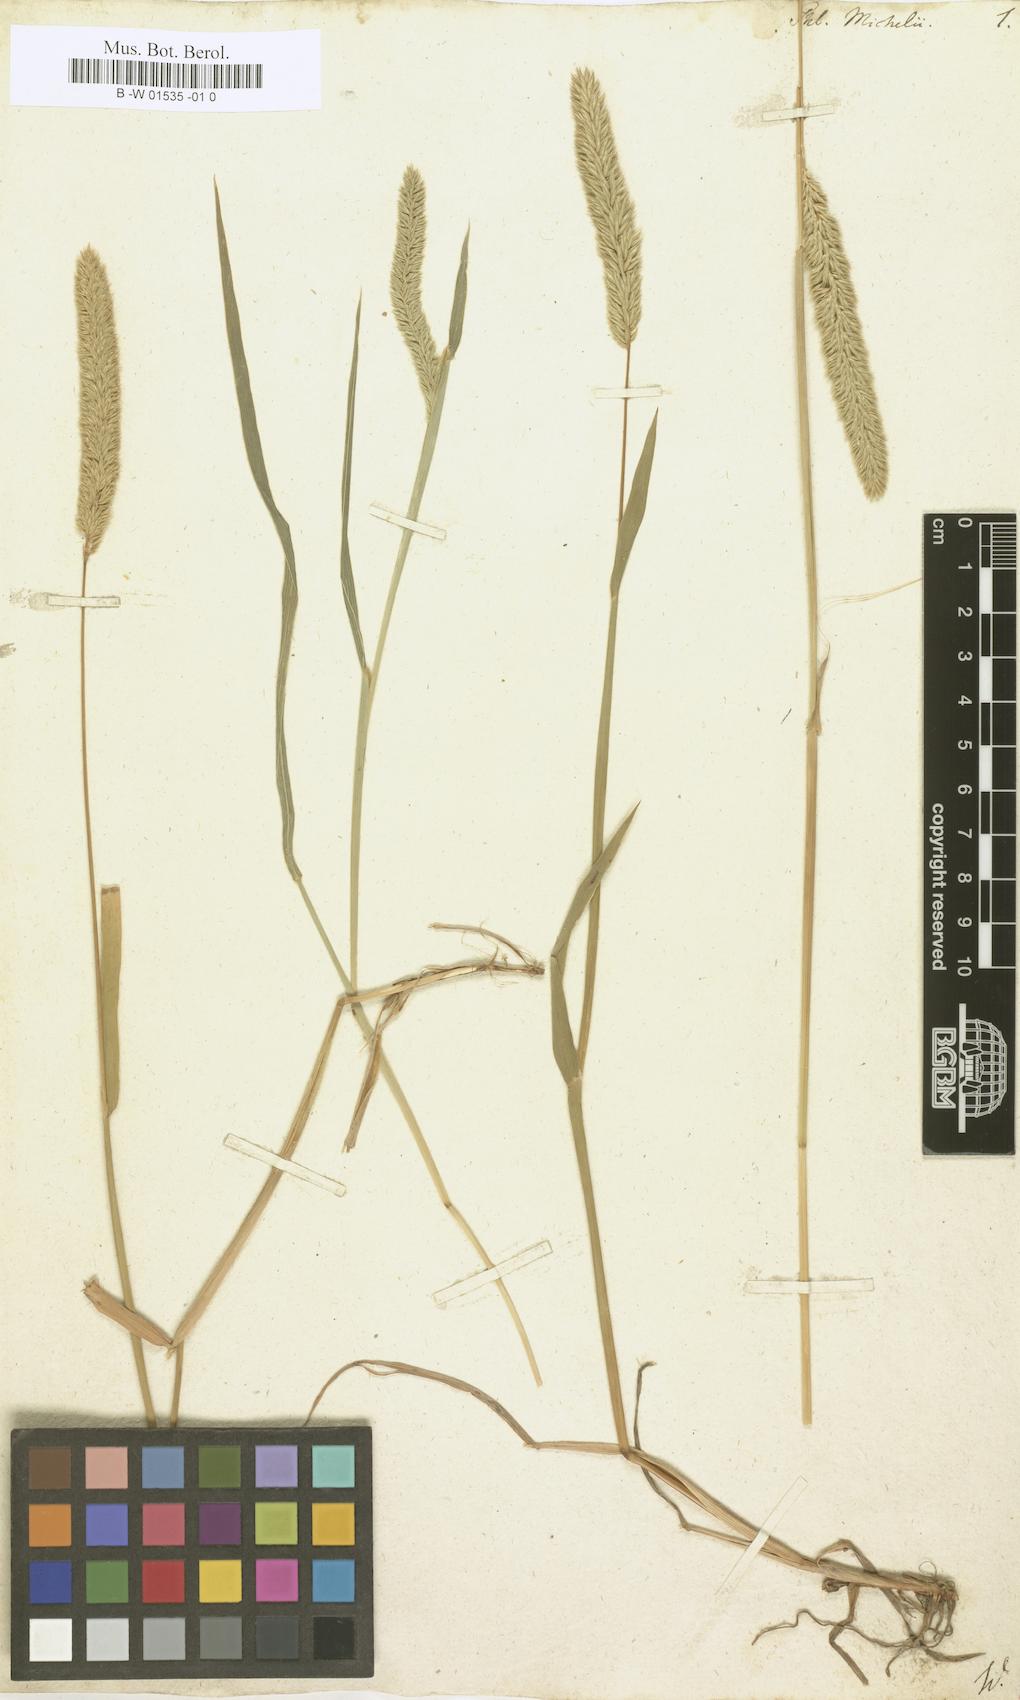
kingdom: Plantae
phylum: Tracheophyta
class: Liliopsida
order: Poales
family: Poaceae
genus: Phleum
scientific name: Phleum hirsutum
